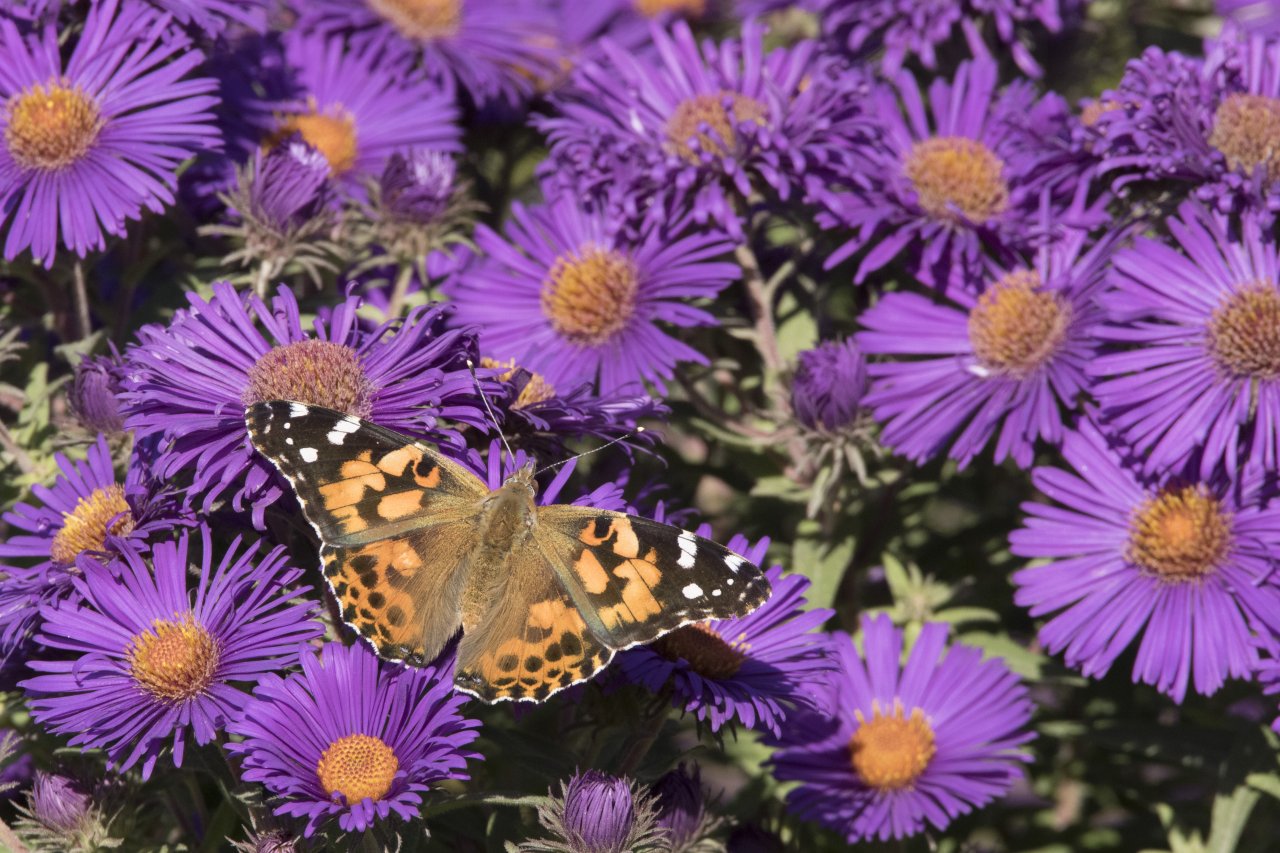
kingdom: Animalia
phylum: Arthropoda
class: Insecta
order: Lepidoptera
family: Nymphalidae
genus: Vanessa
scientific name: Vanessa cardui
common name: Painted Lady
